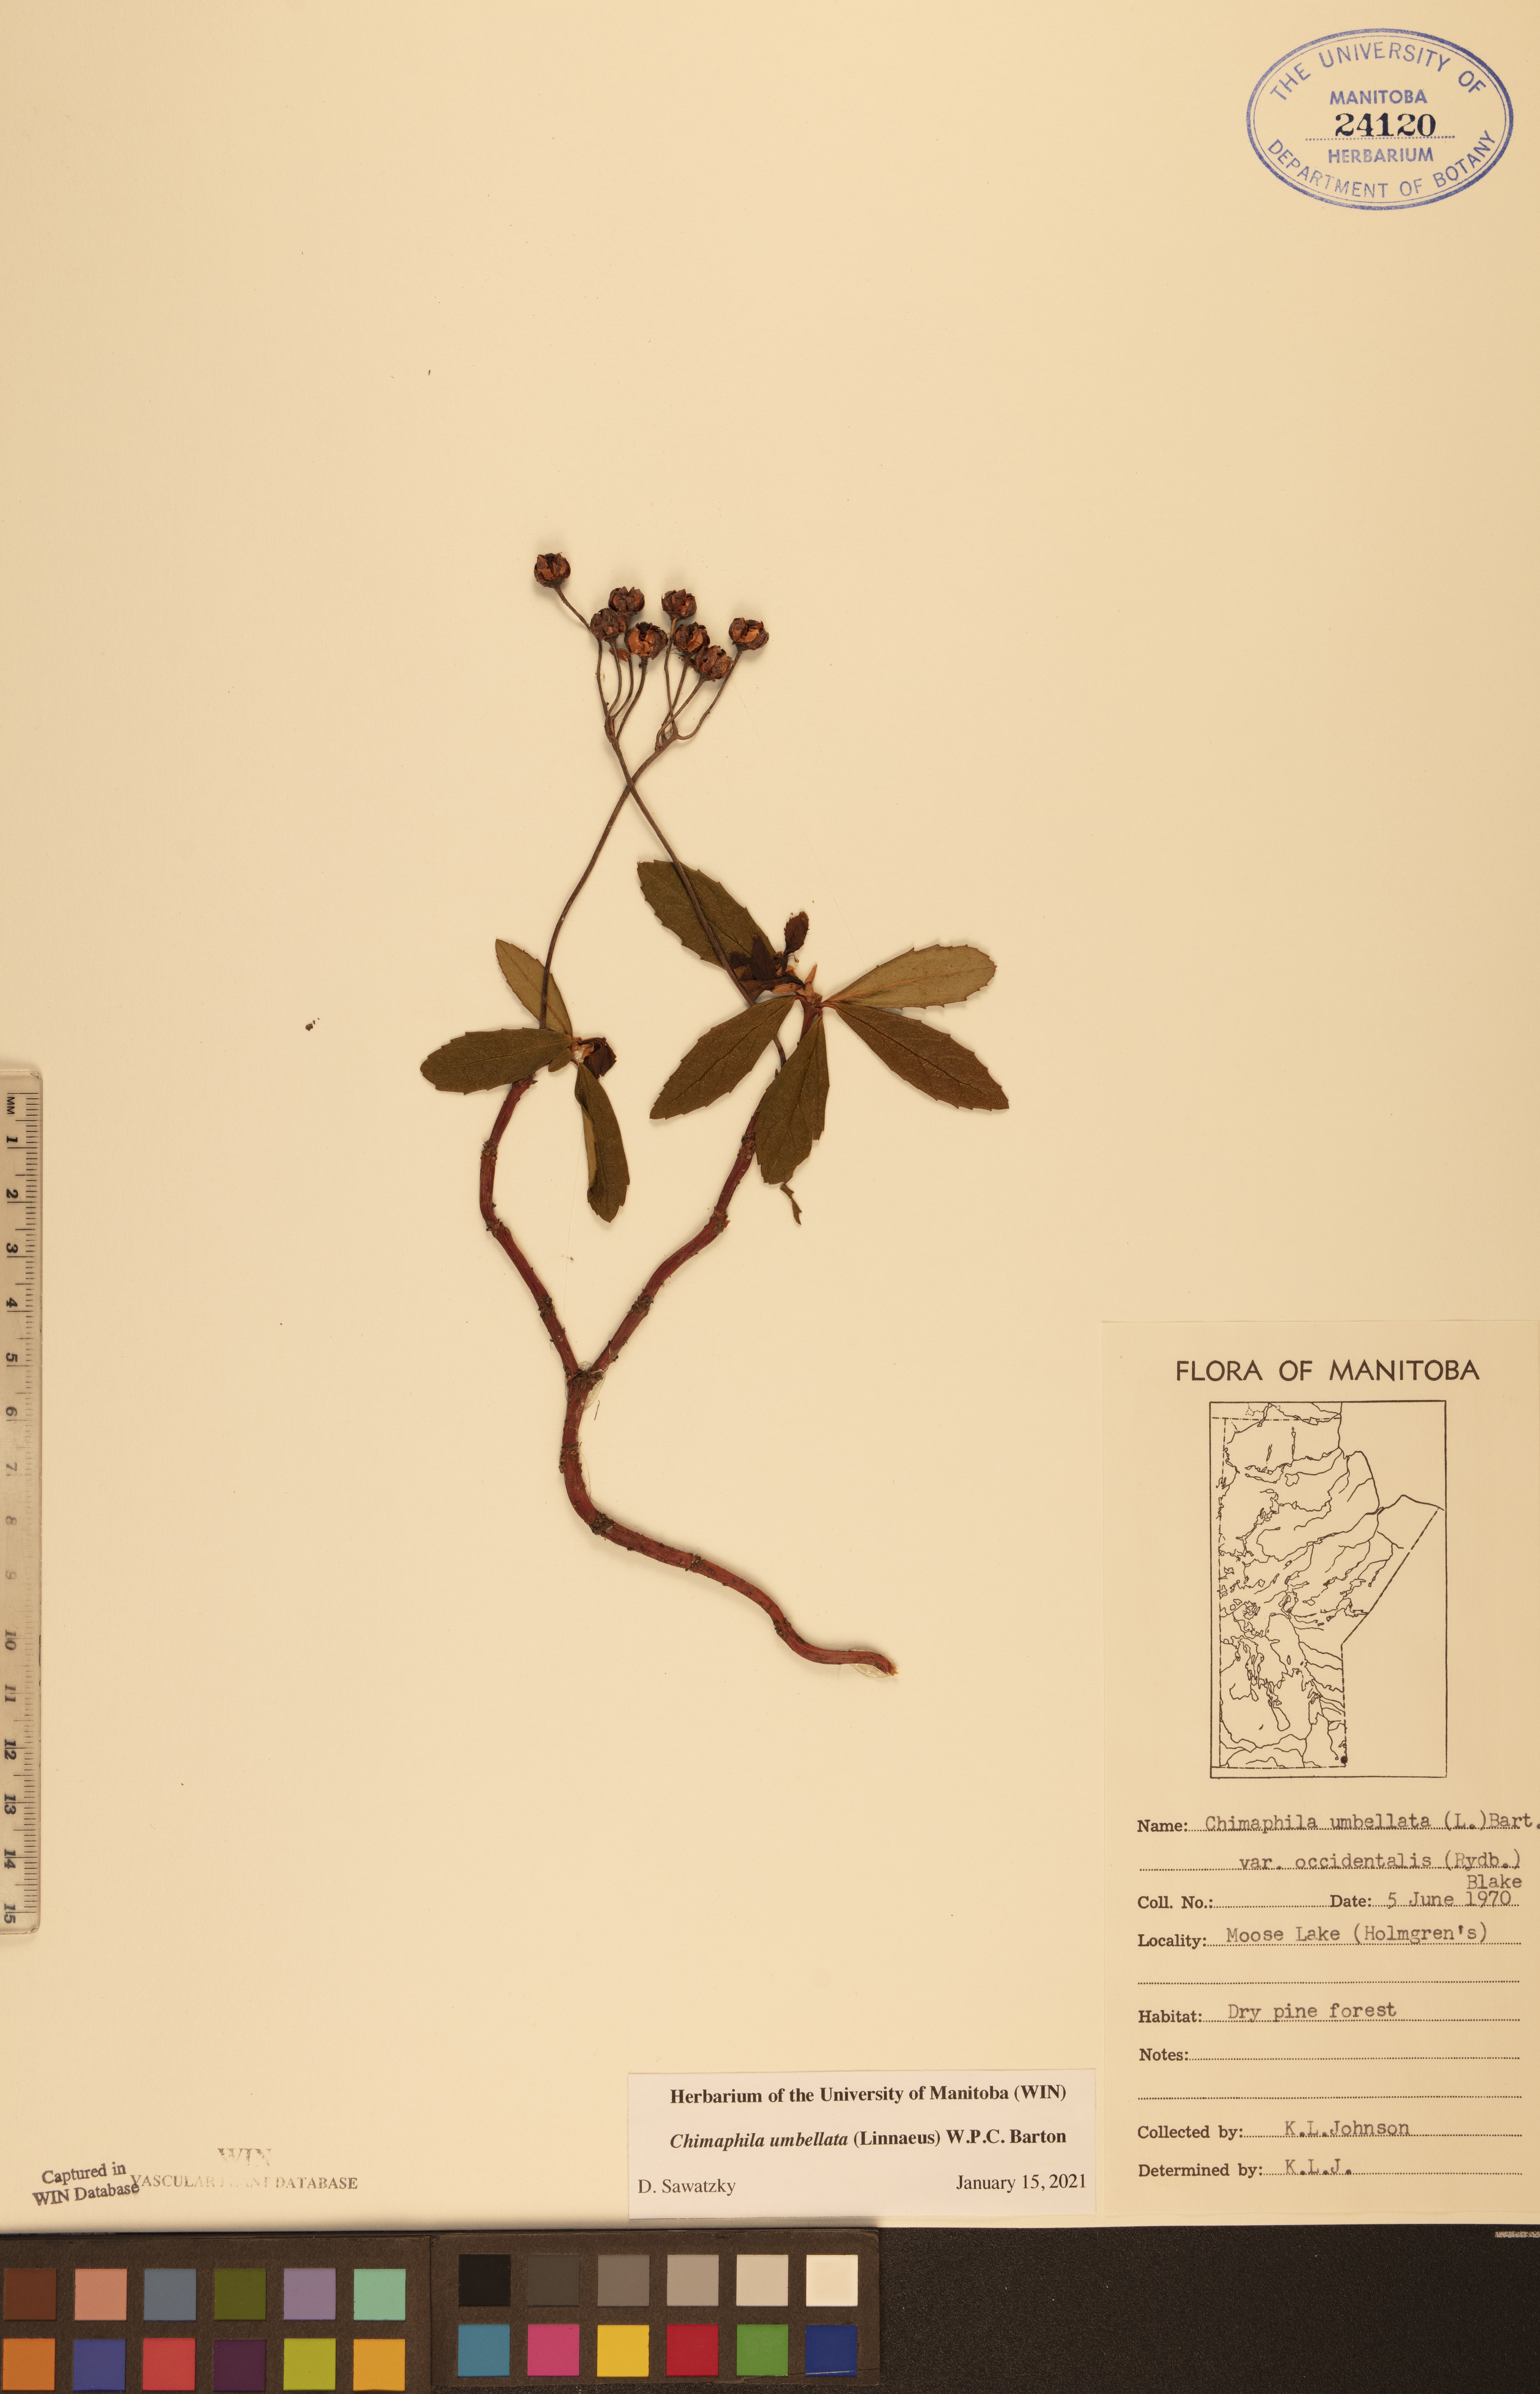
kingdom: Plantae
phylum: Tracheophyta
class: Magnoliopsida
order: Ericales
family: Ericaceae
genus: Chimaphila
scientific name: Chimaphila umbellata
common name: Pipsissewa
